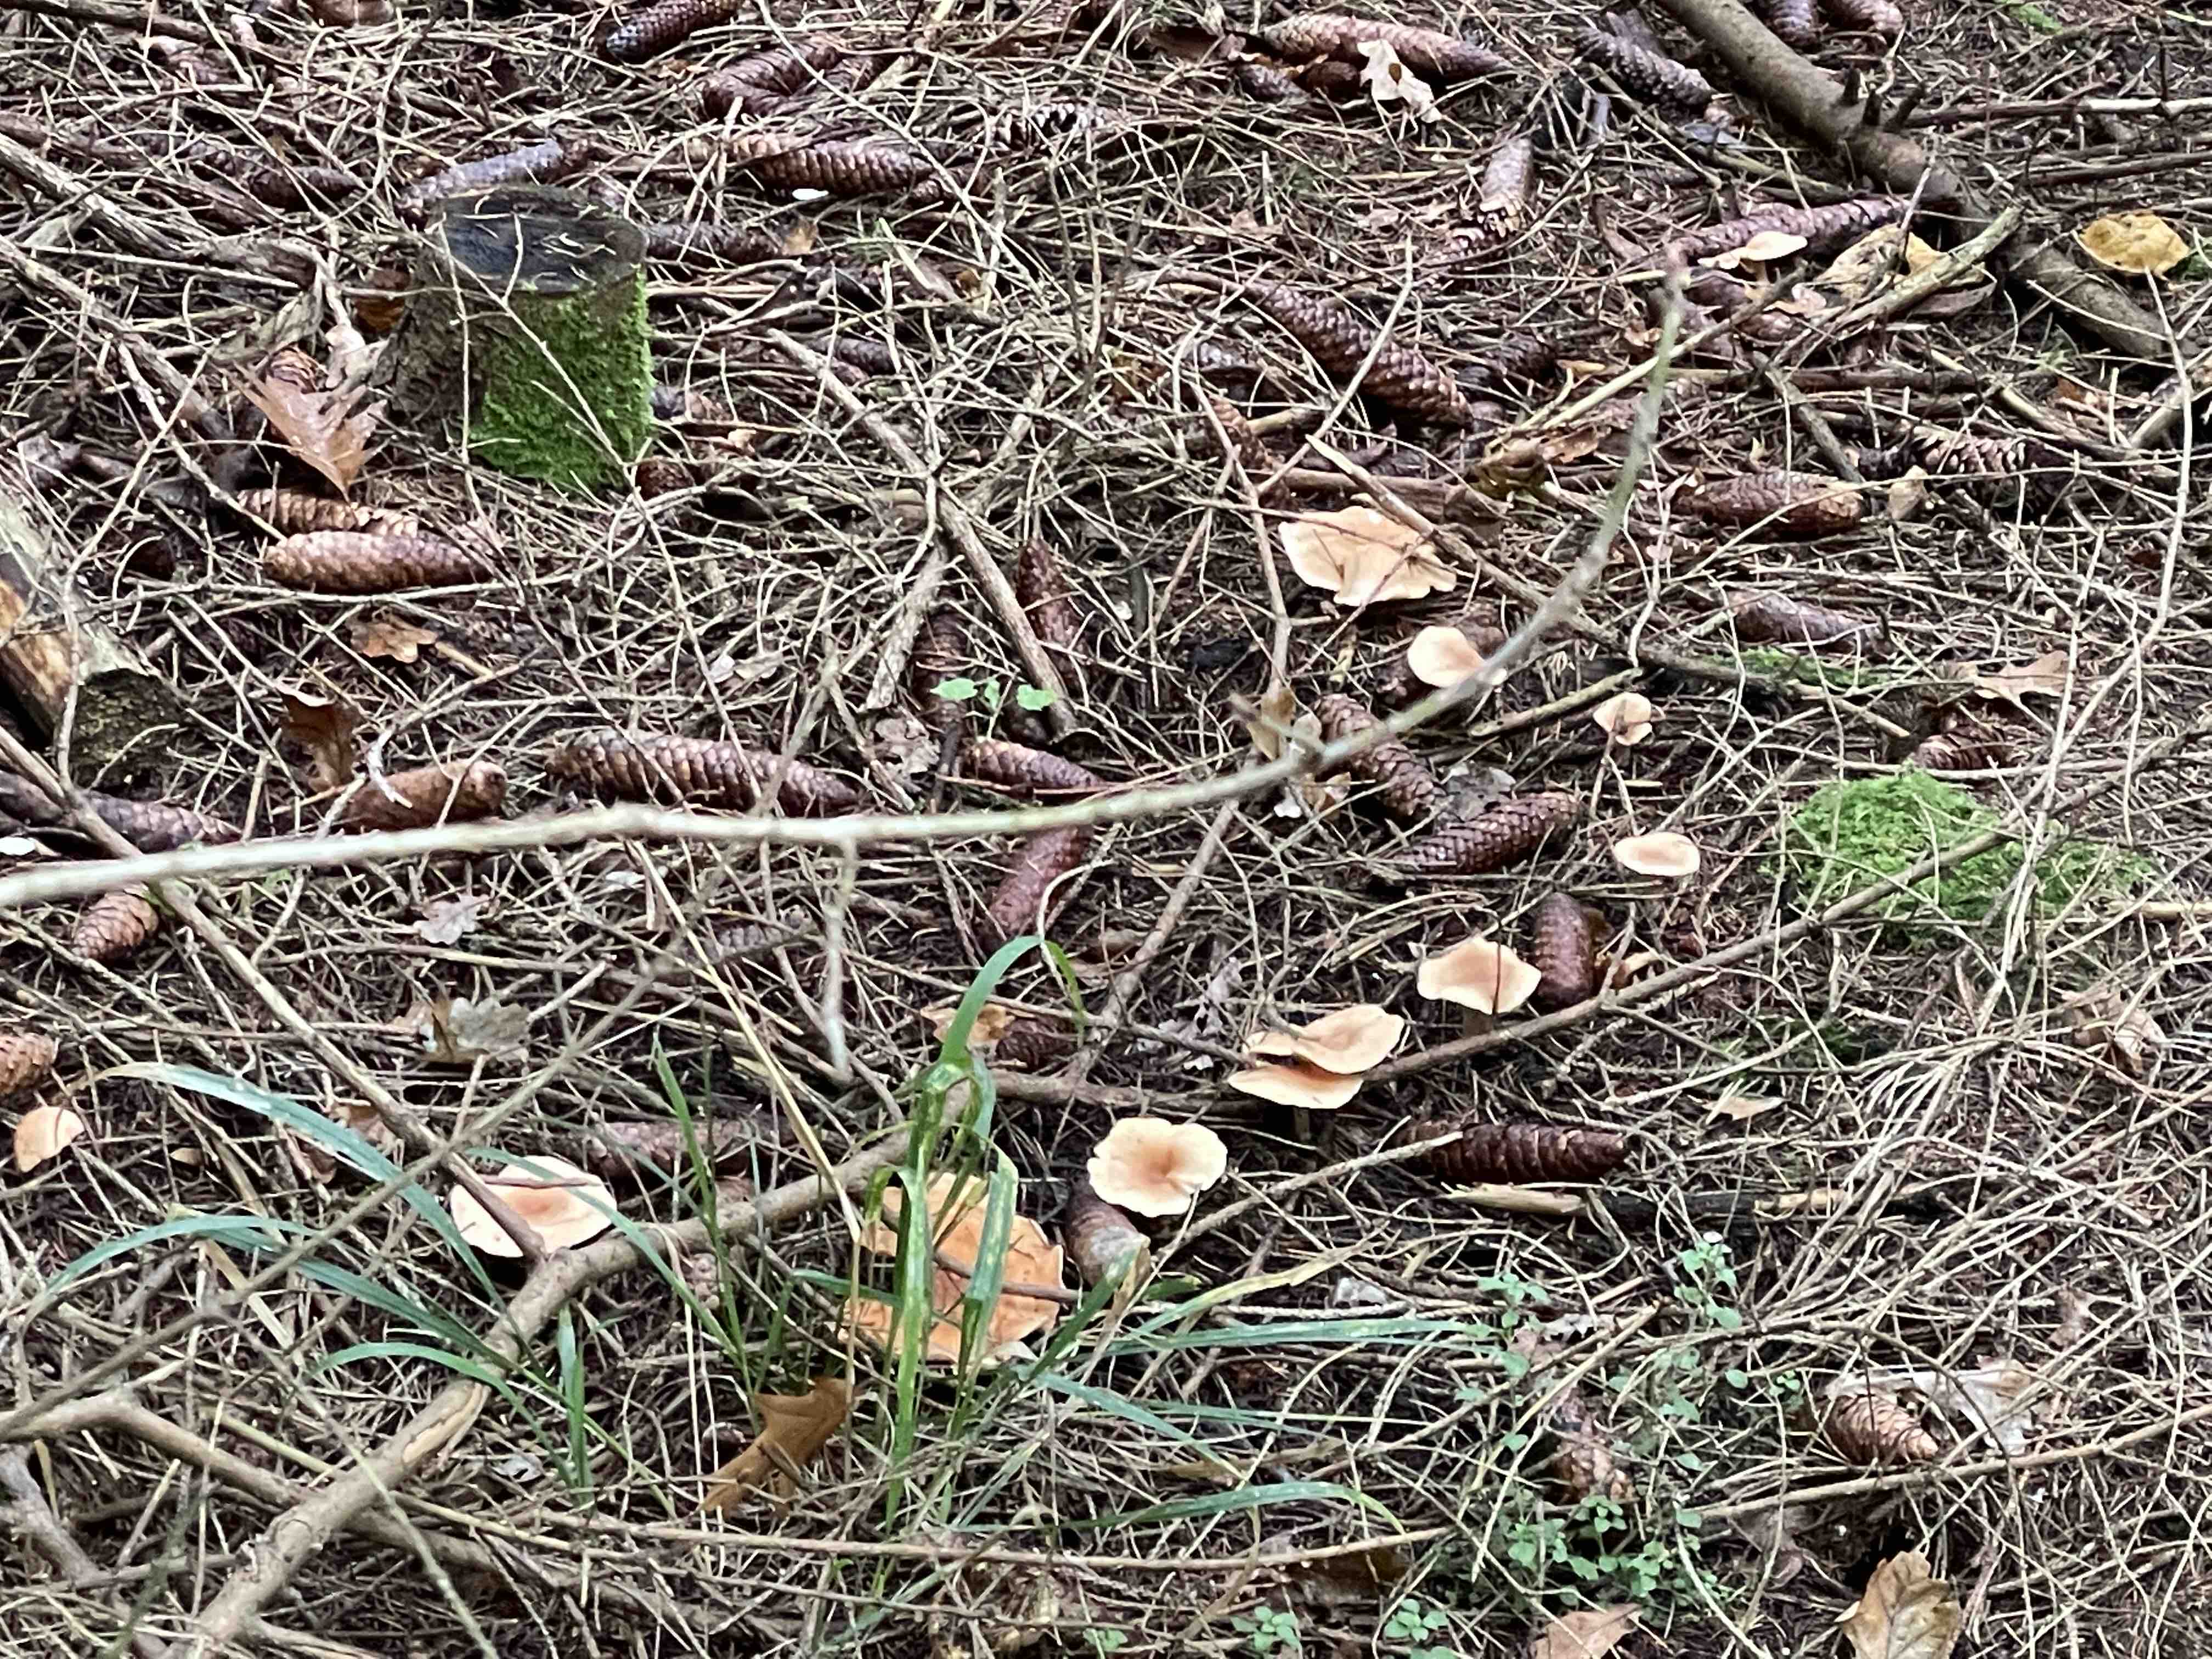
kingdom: Fungi
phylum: Basidiomycota
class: Agaricomycetes
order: Agaricales
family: Tricholomataceae
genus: Paralepista
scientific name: Paralepista flaccida
